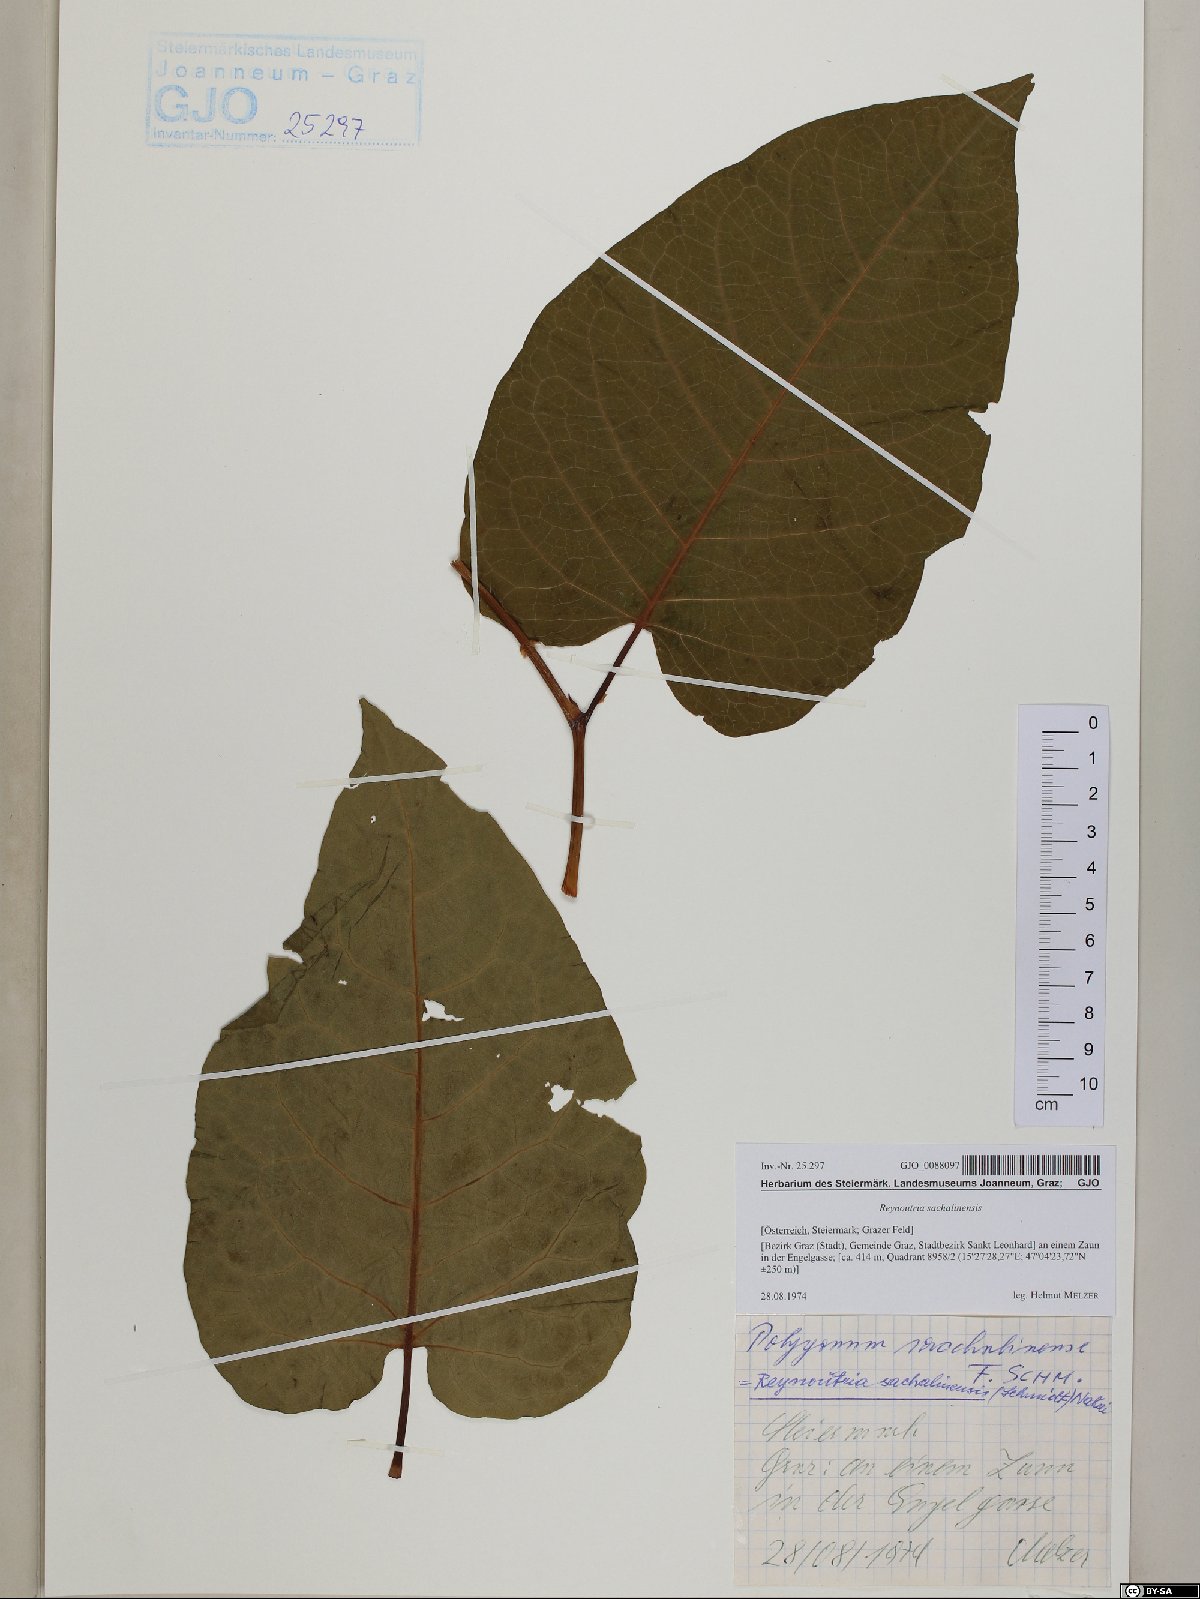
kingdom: Plantae
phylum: Tracheophyta
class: Magnoliopsida
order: Caryophyllales
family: Polygonaceae
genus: Reynoutria
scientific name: Reynoutria sachalinensis
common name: Giant knotweed
